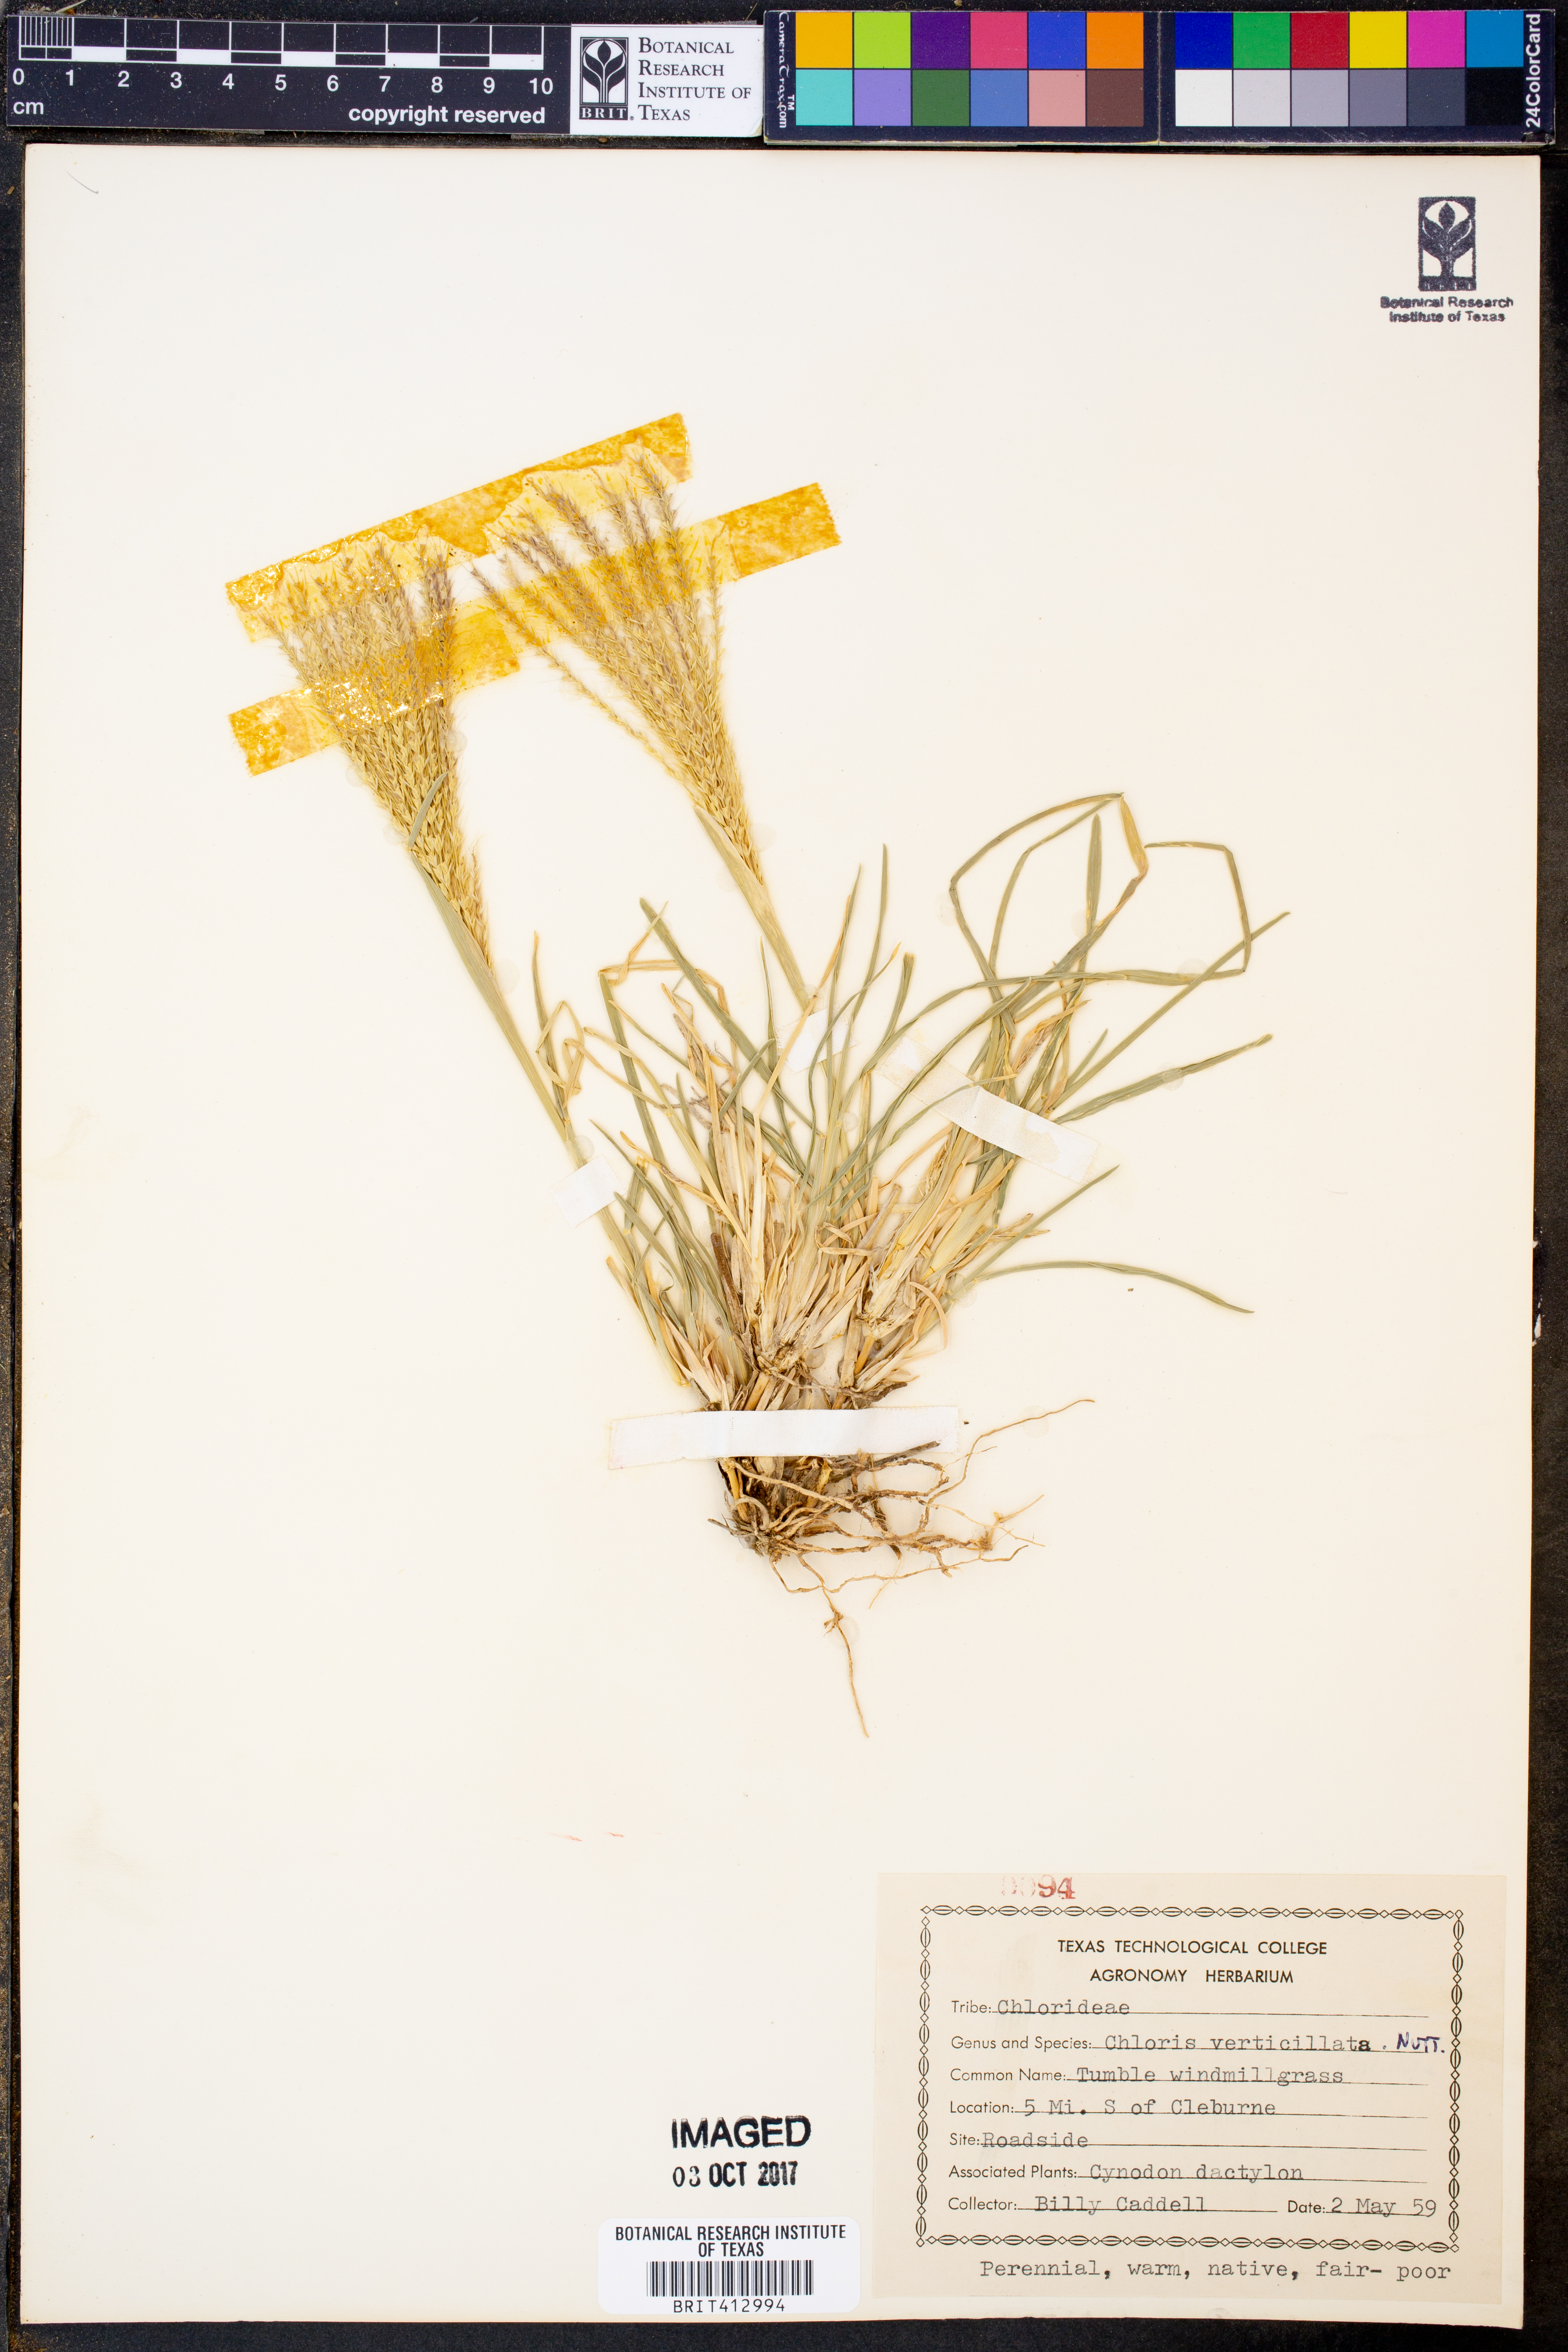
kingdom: Plantae
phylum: Tracheophyta
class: Liliopsida
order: Poales
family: Poaceae
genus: Chloris
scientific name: Chloris verticillata
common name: Tumble windmill grass
